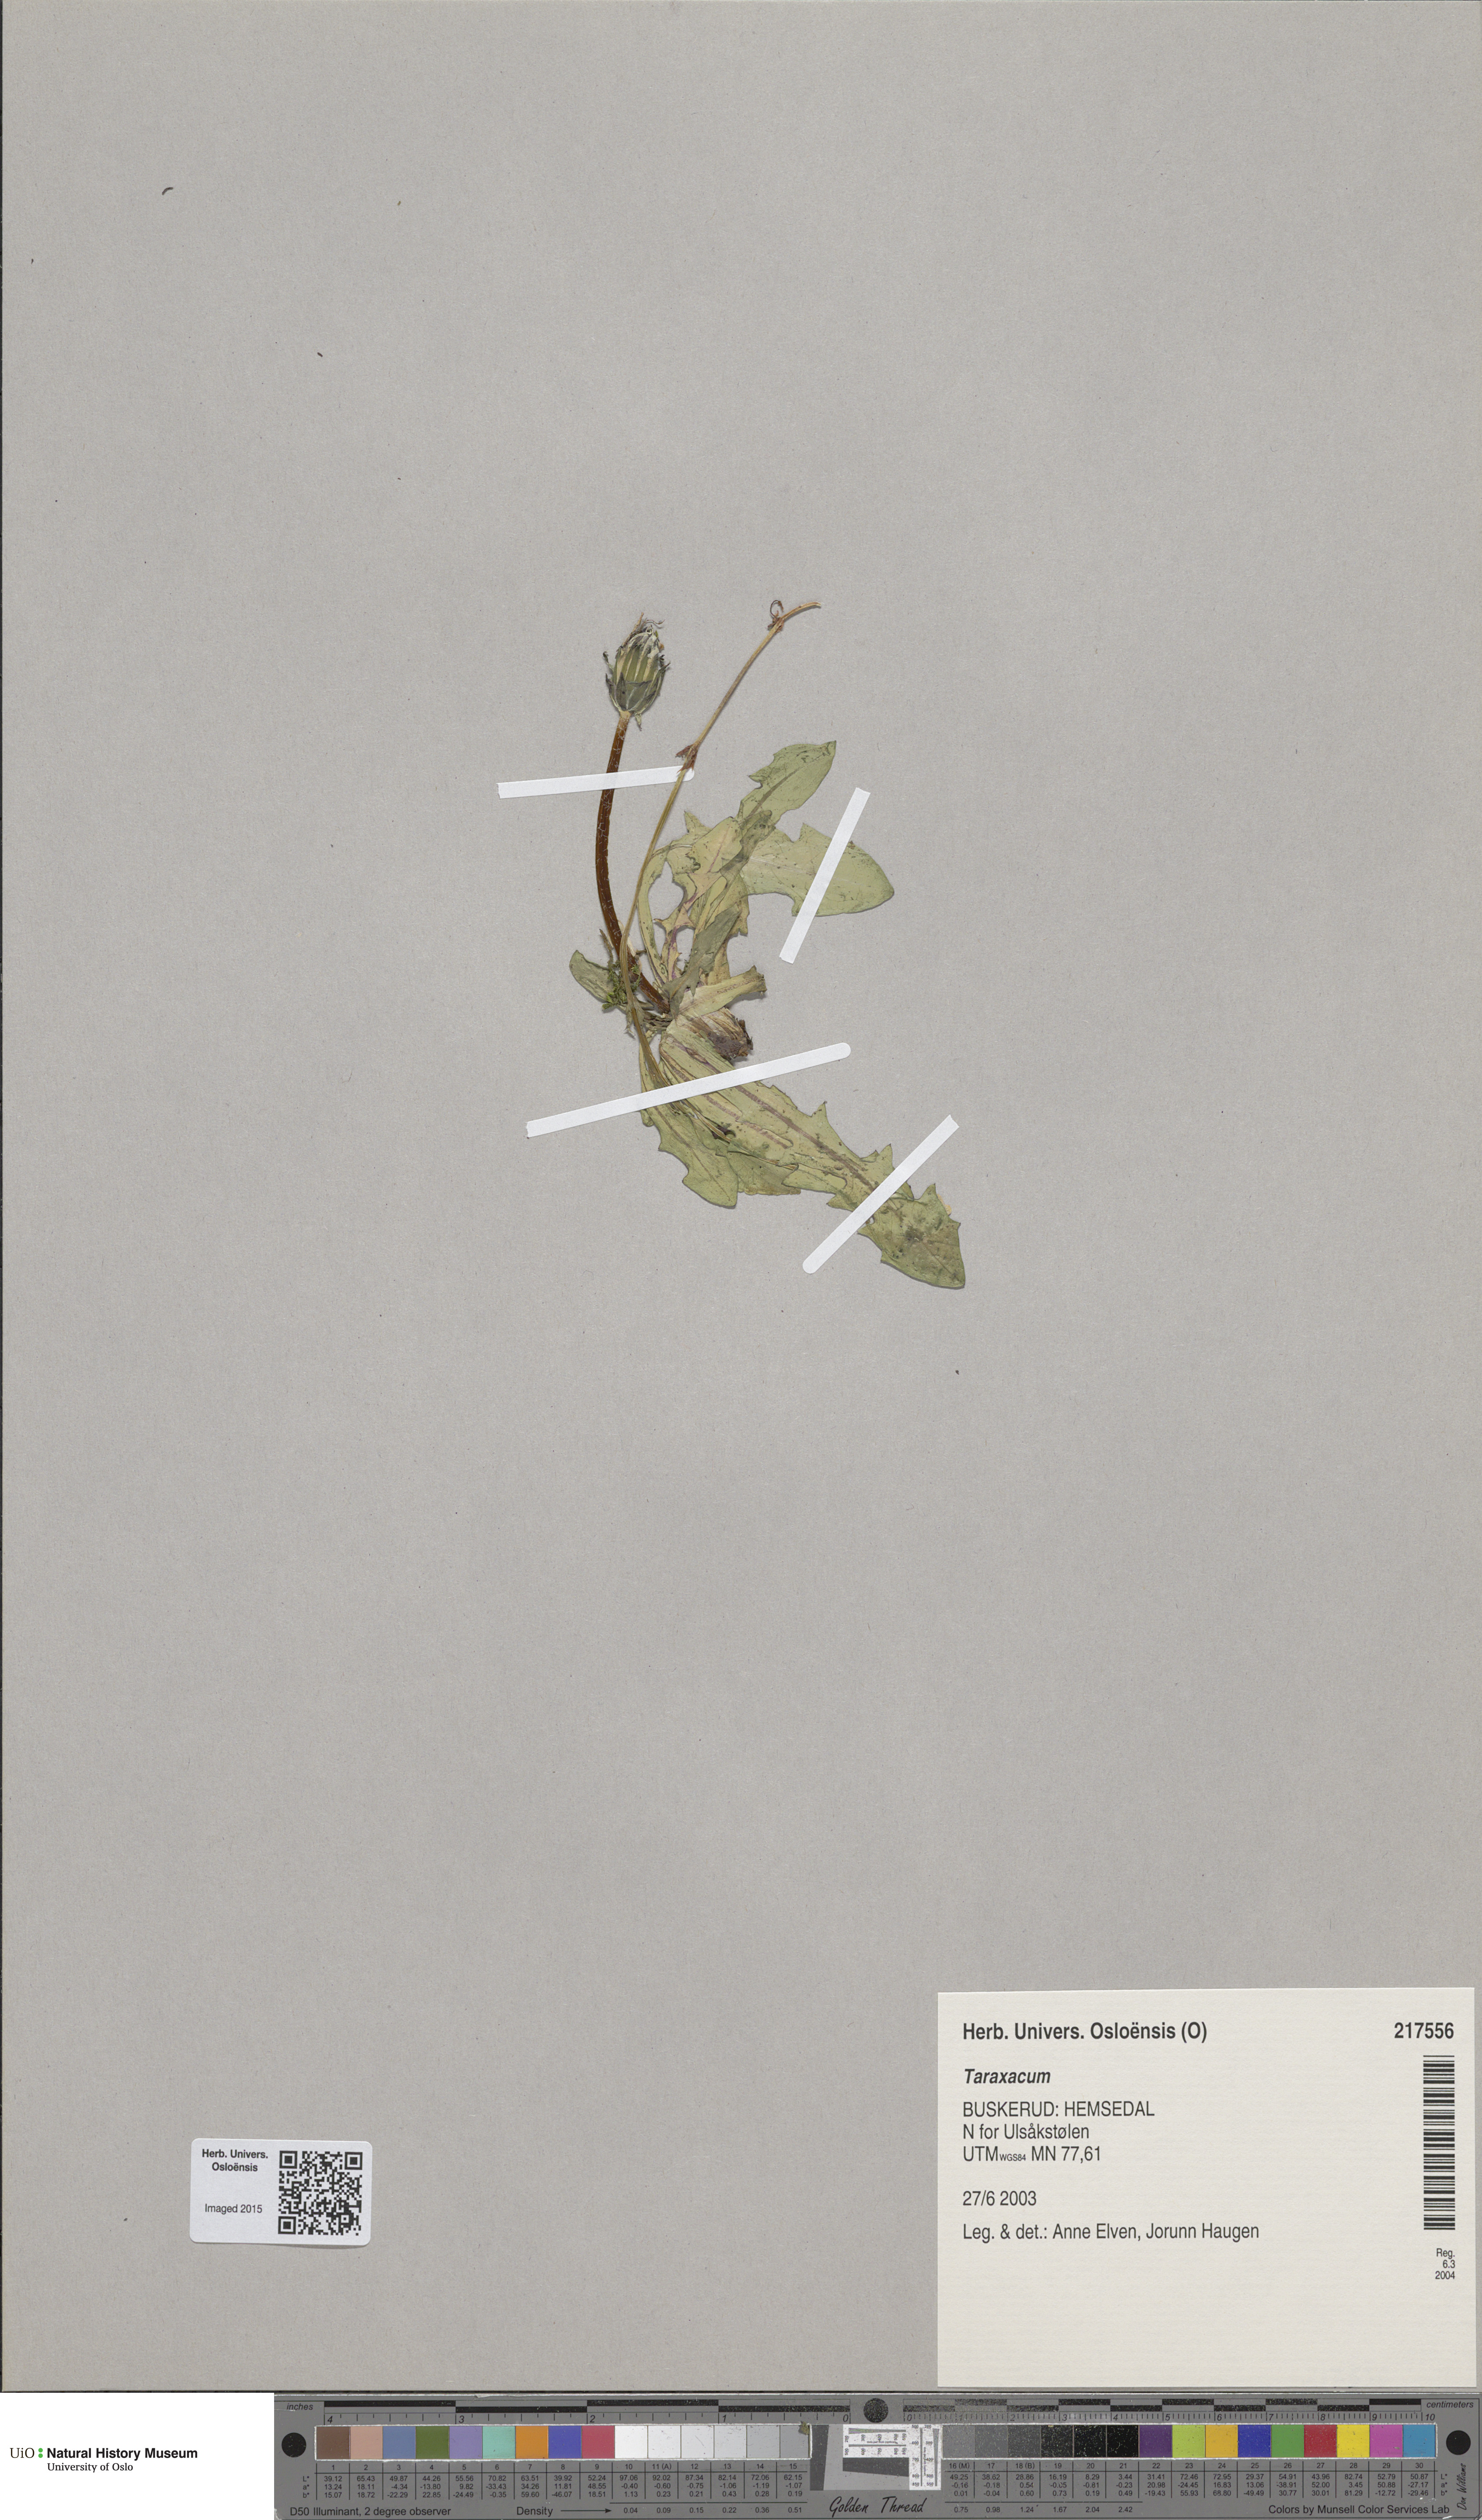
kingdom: Plantae
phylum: Tracheophyta
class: Magnoliopsida
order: Asterales
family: Asteraceae
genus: Taraxacum
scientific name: Taraxacum
